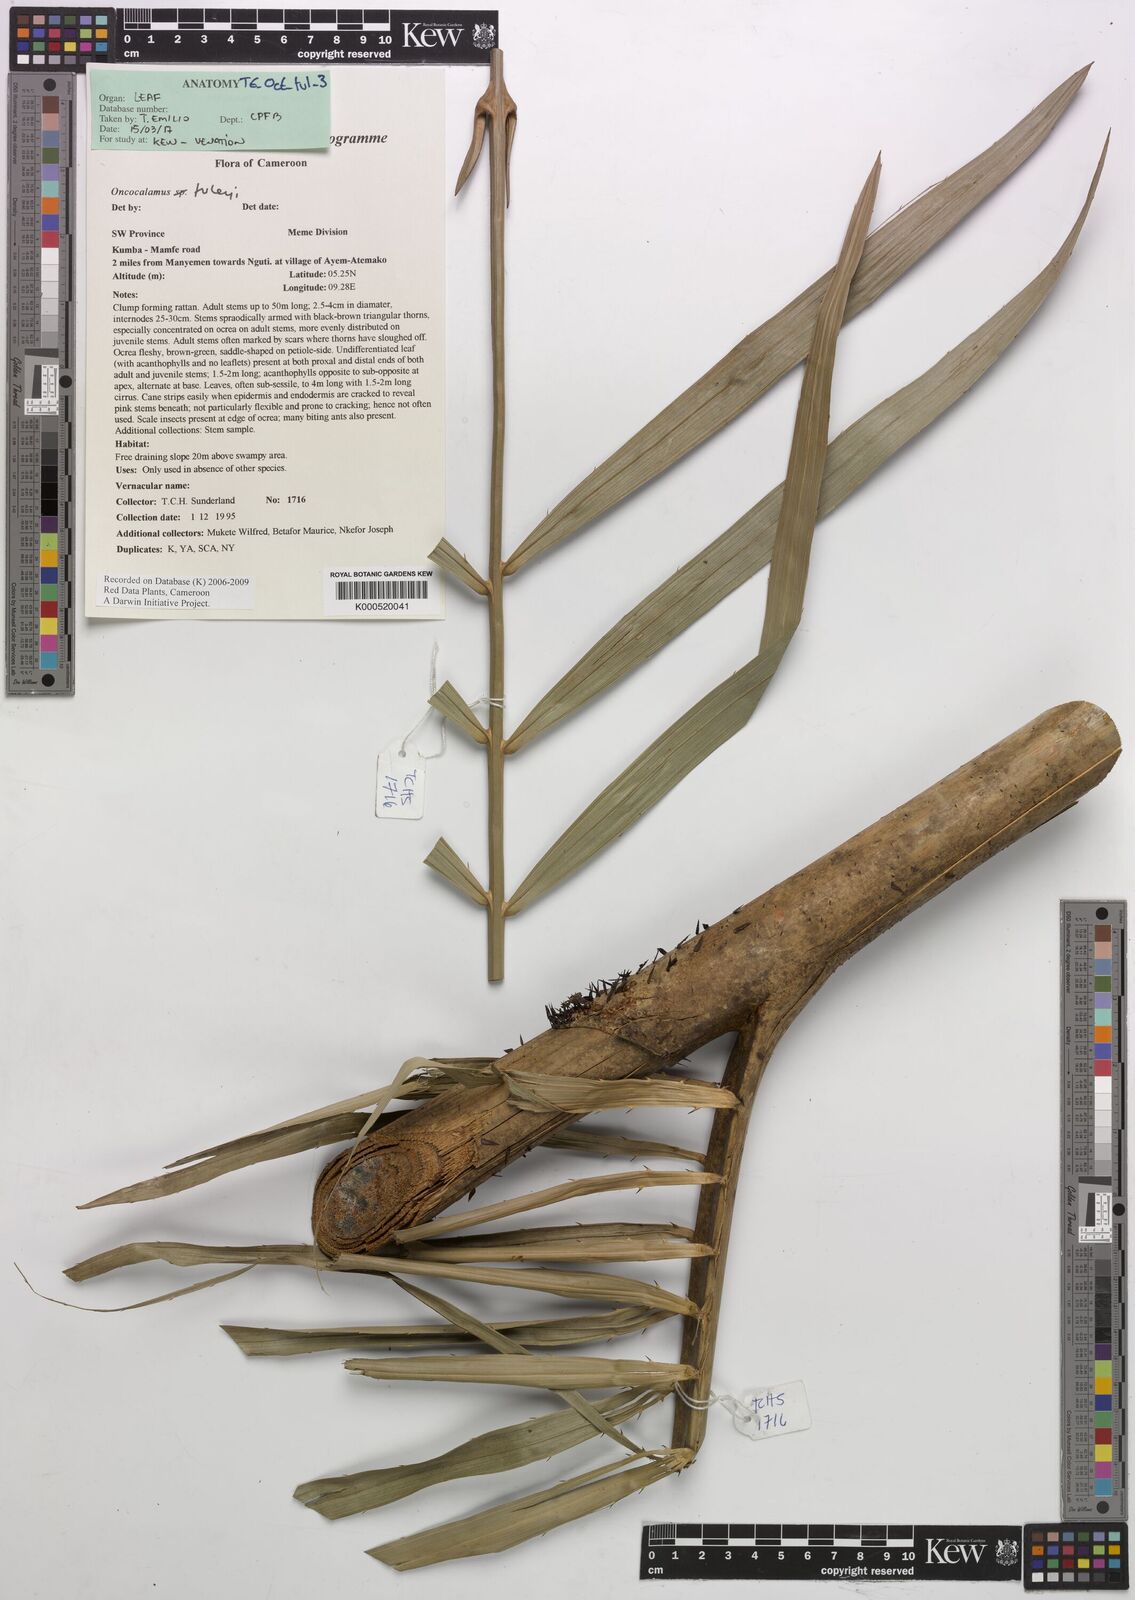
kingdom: Plantae
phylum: Tracheophyta
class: Liliopsida
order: Arecales
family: Arecaceae
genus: Oncocalamus
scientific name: Oncocalamus tuleyi
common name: Rattan
